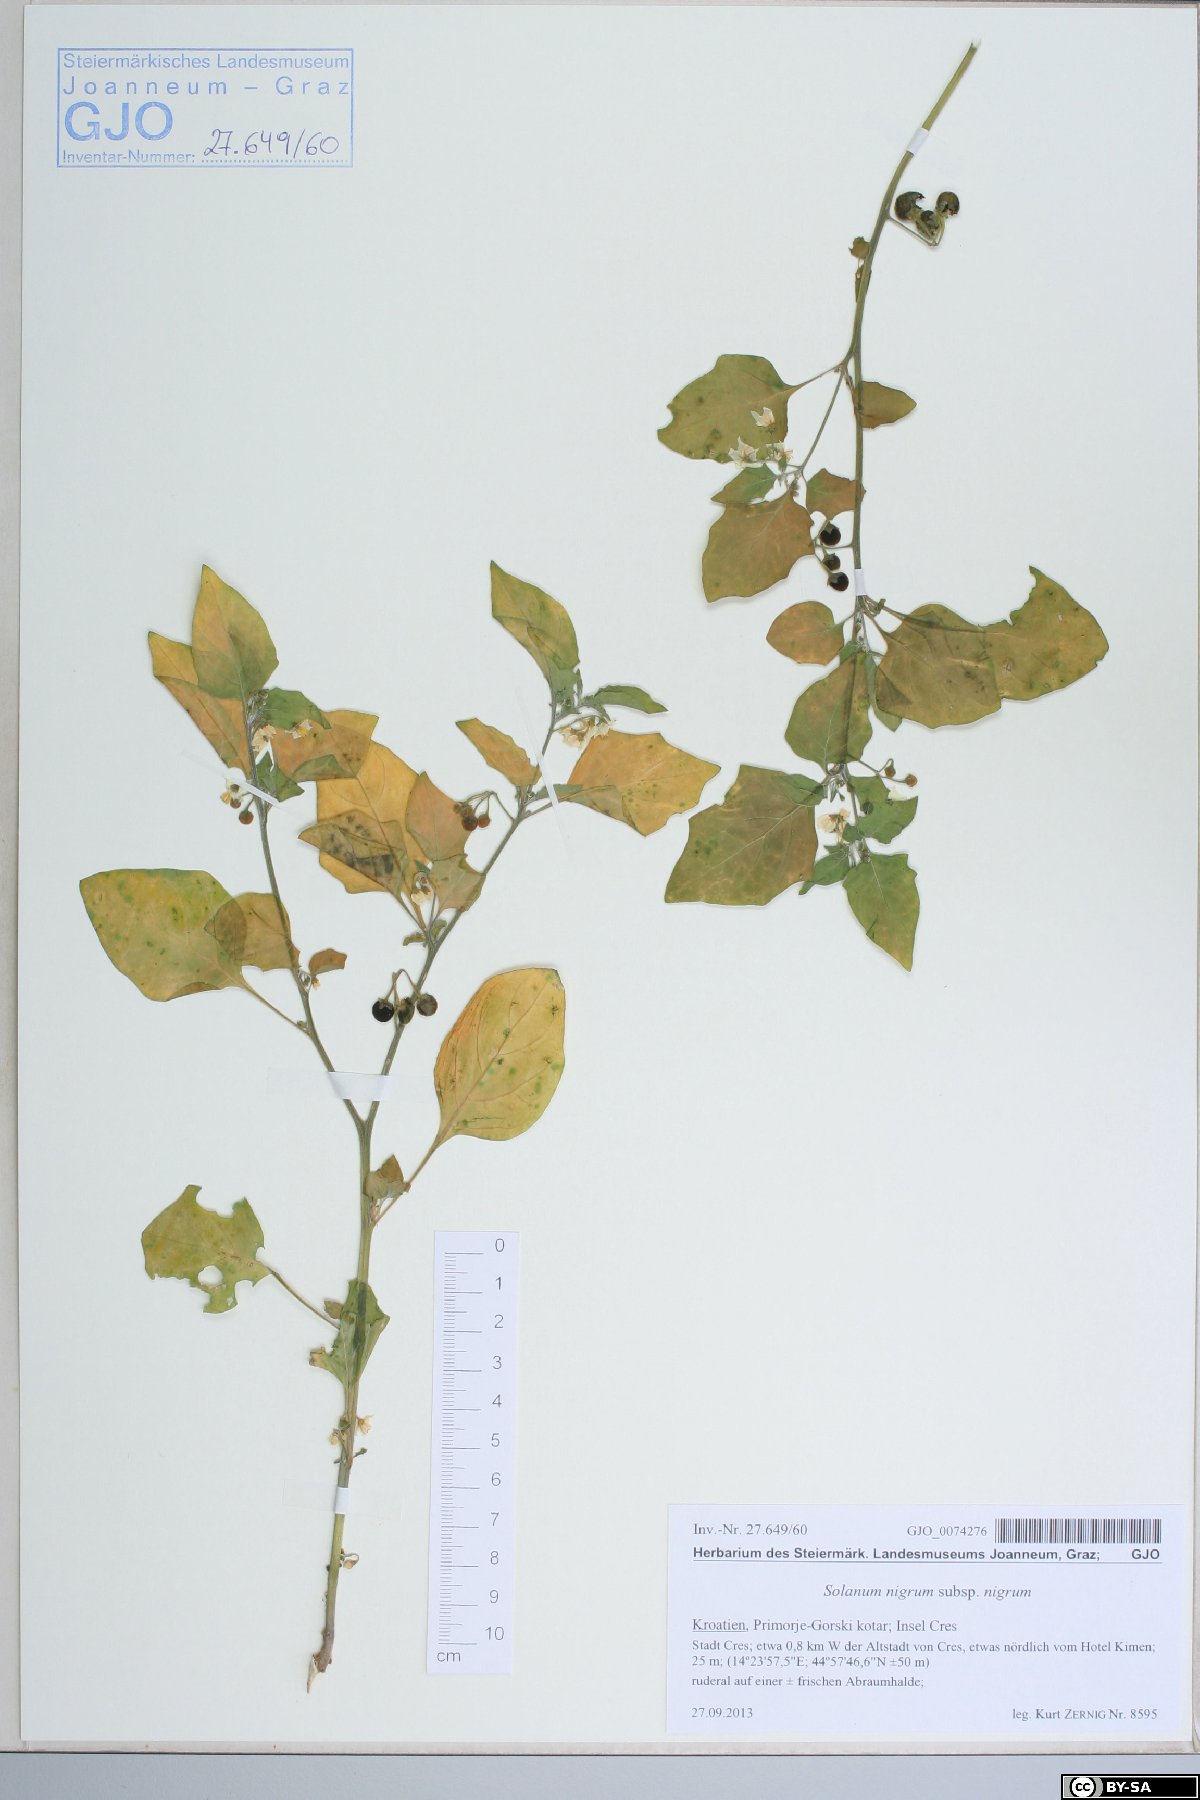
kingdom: Plantae
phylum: Tracheophyta
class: Magnoliopsida
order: Solanales
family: Solanaceae
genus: Solanum
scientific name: Solanum nigrum
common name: Black nightshade
